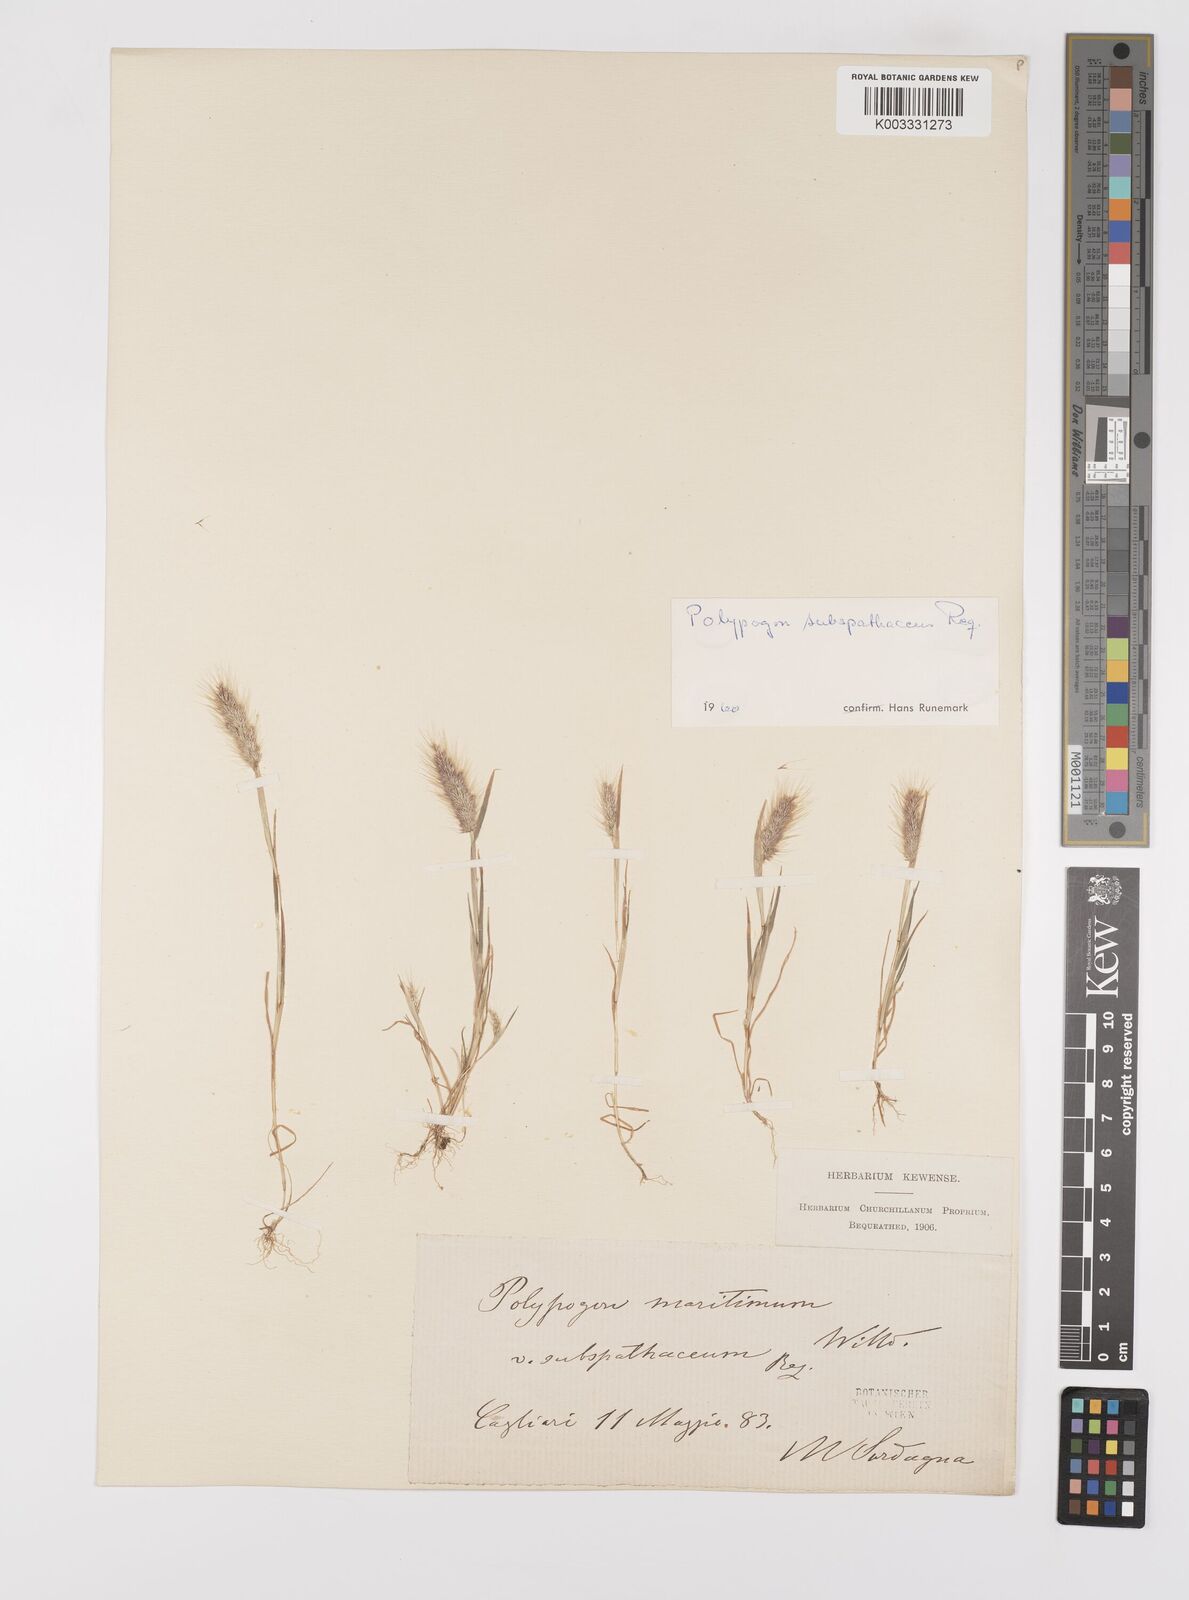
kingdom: Plantae
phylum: Tracheophyta
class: Liliopsida
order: Poales
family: Poaceae
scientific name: Poaceae
